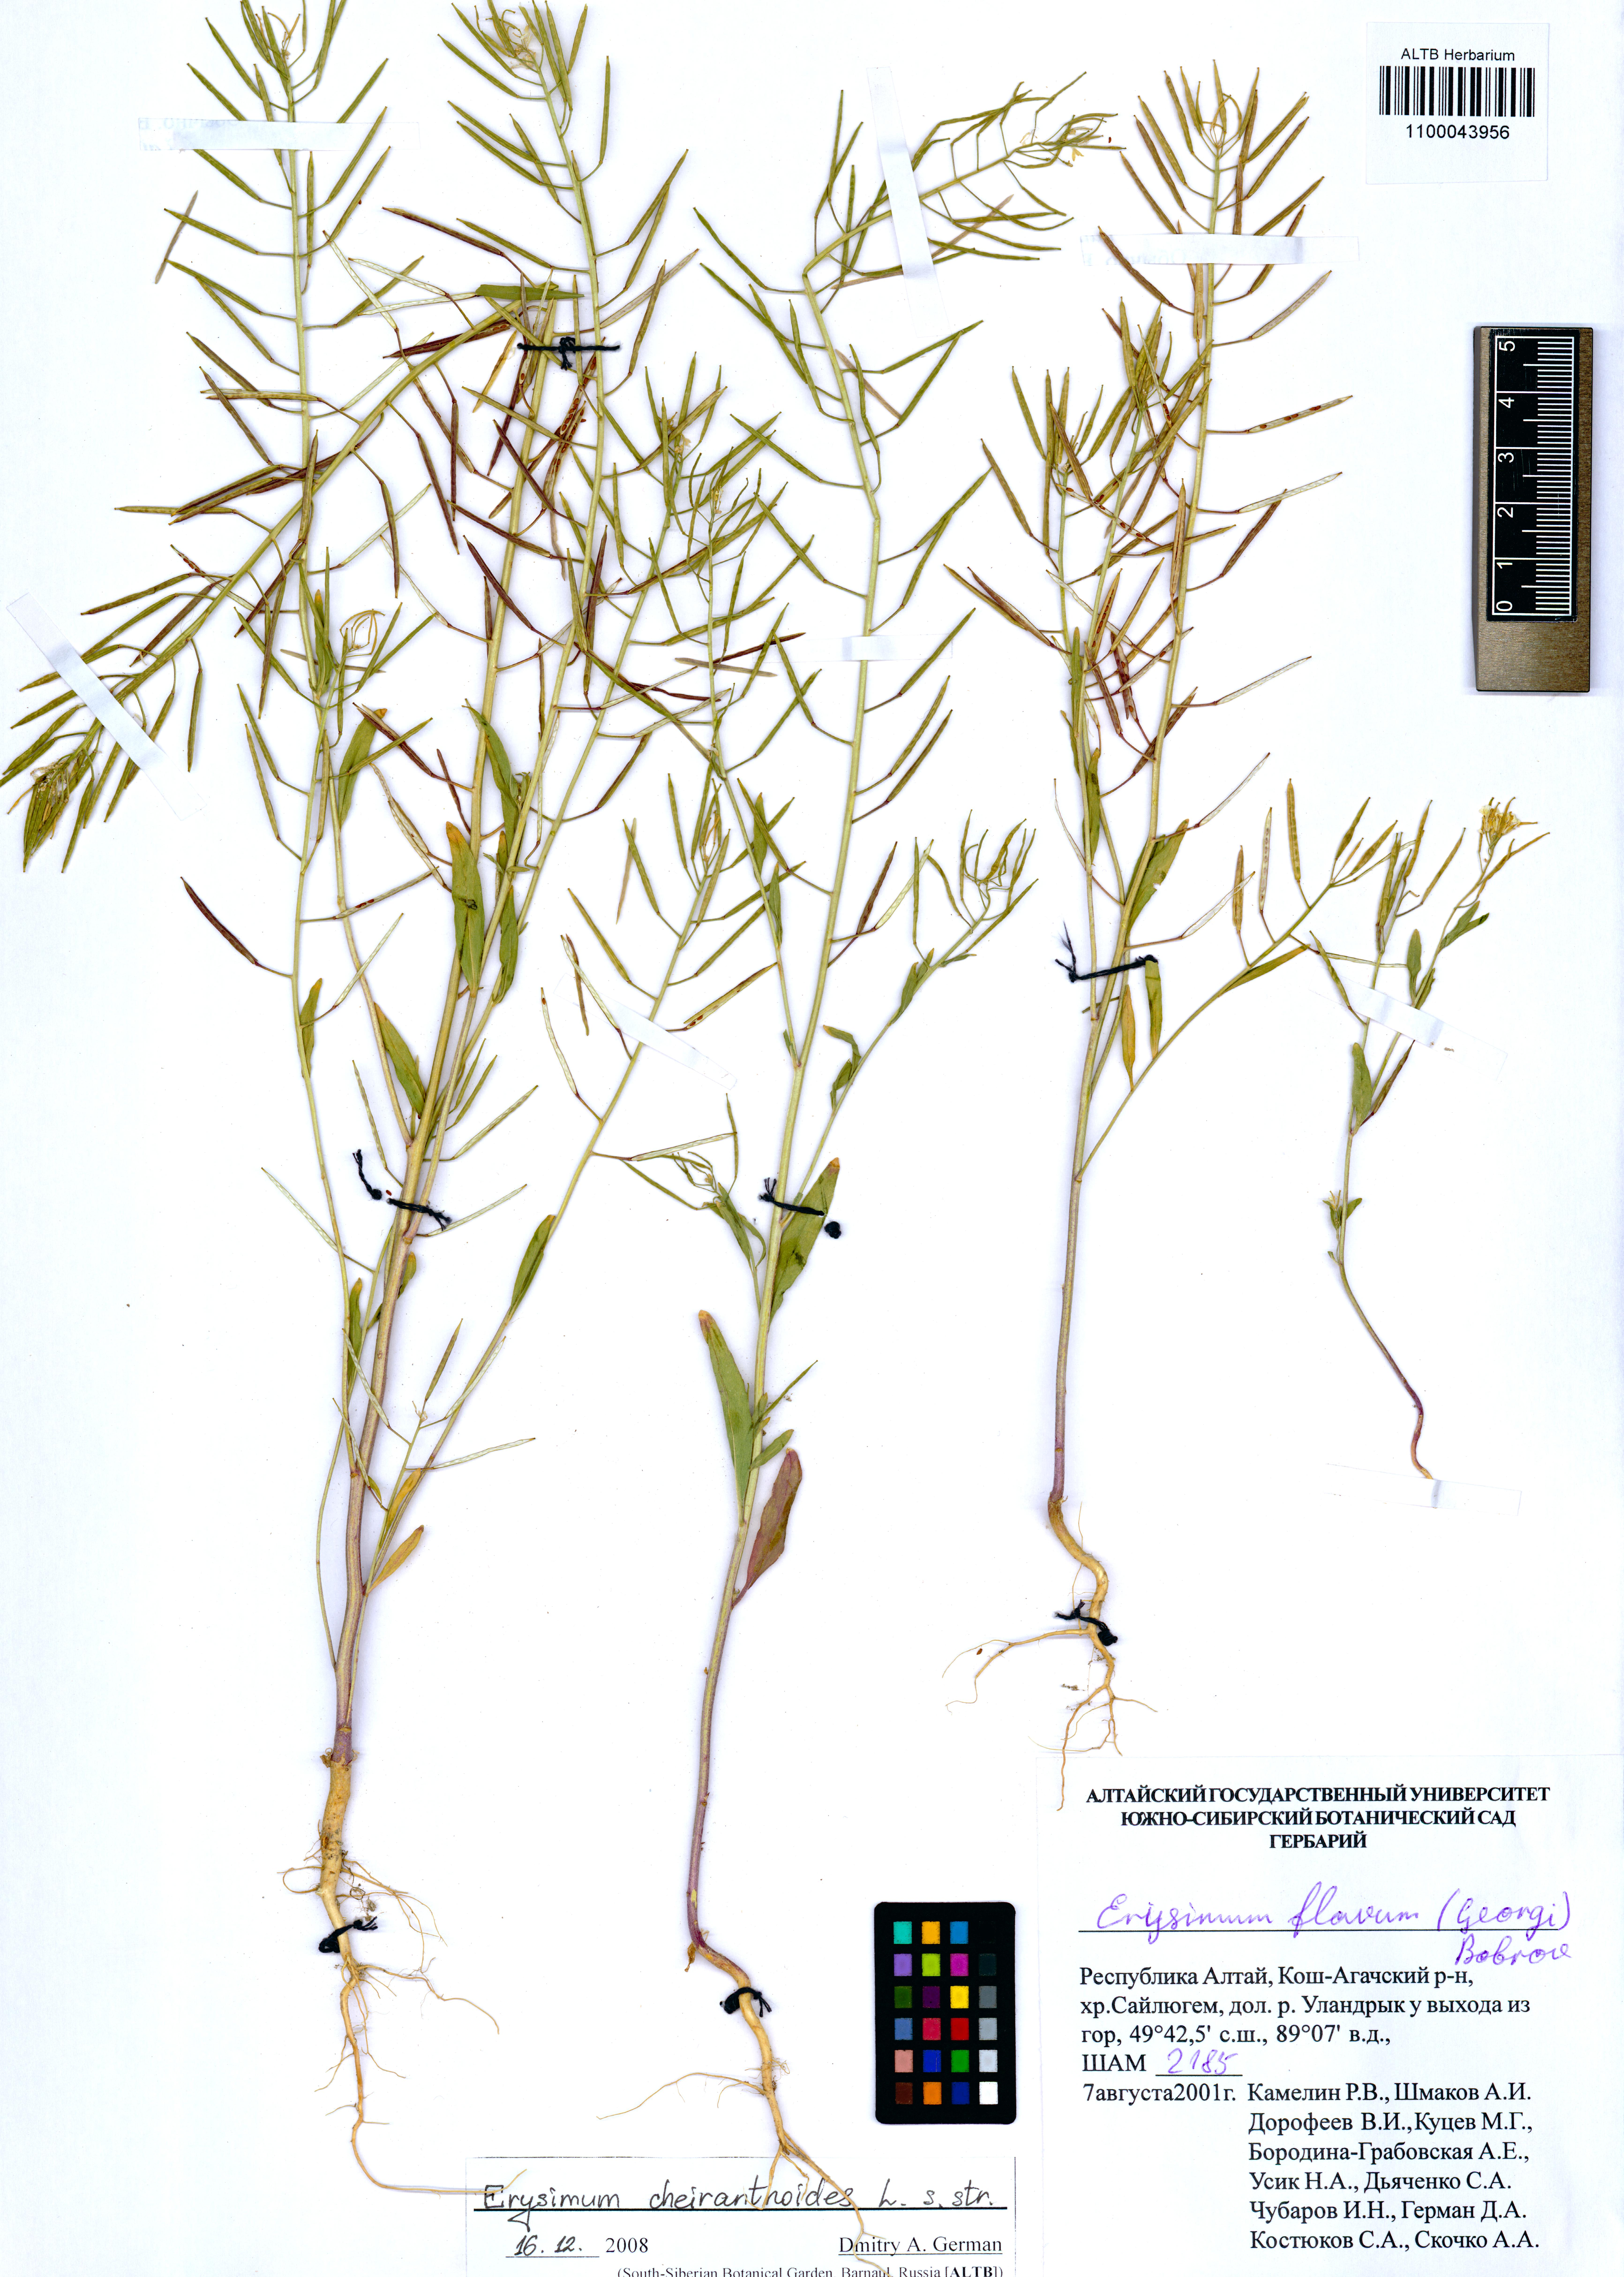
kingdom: Plantae
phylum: Tracheophyta
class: Magnoliopsida
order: Brassicales
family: Brassicaceae
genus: Erysimum
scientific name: Erysimum cheiranthoides
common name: Treacle mustard
